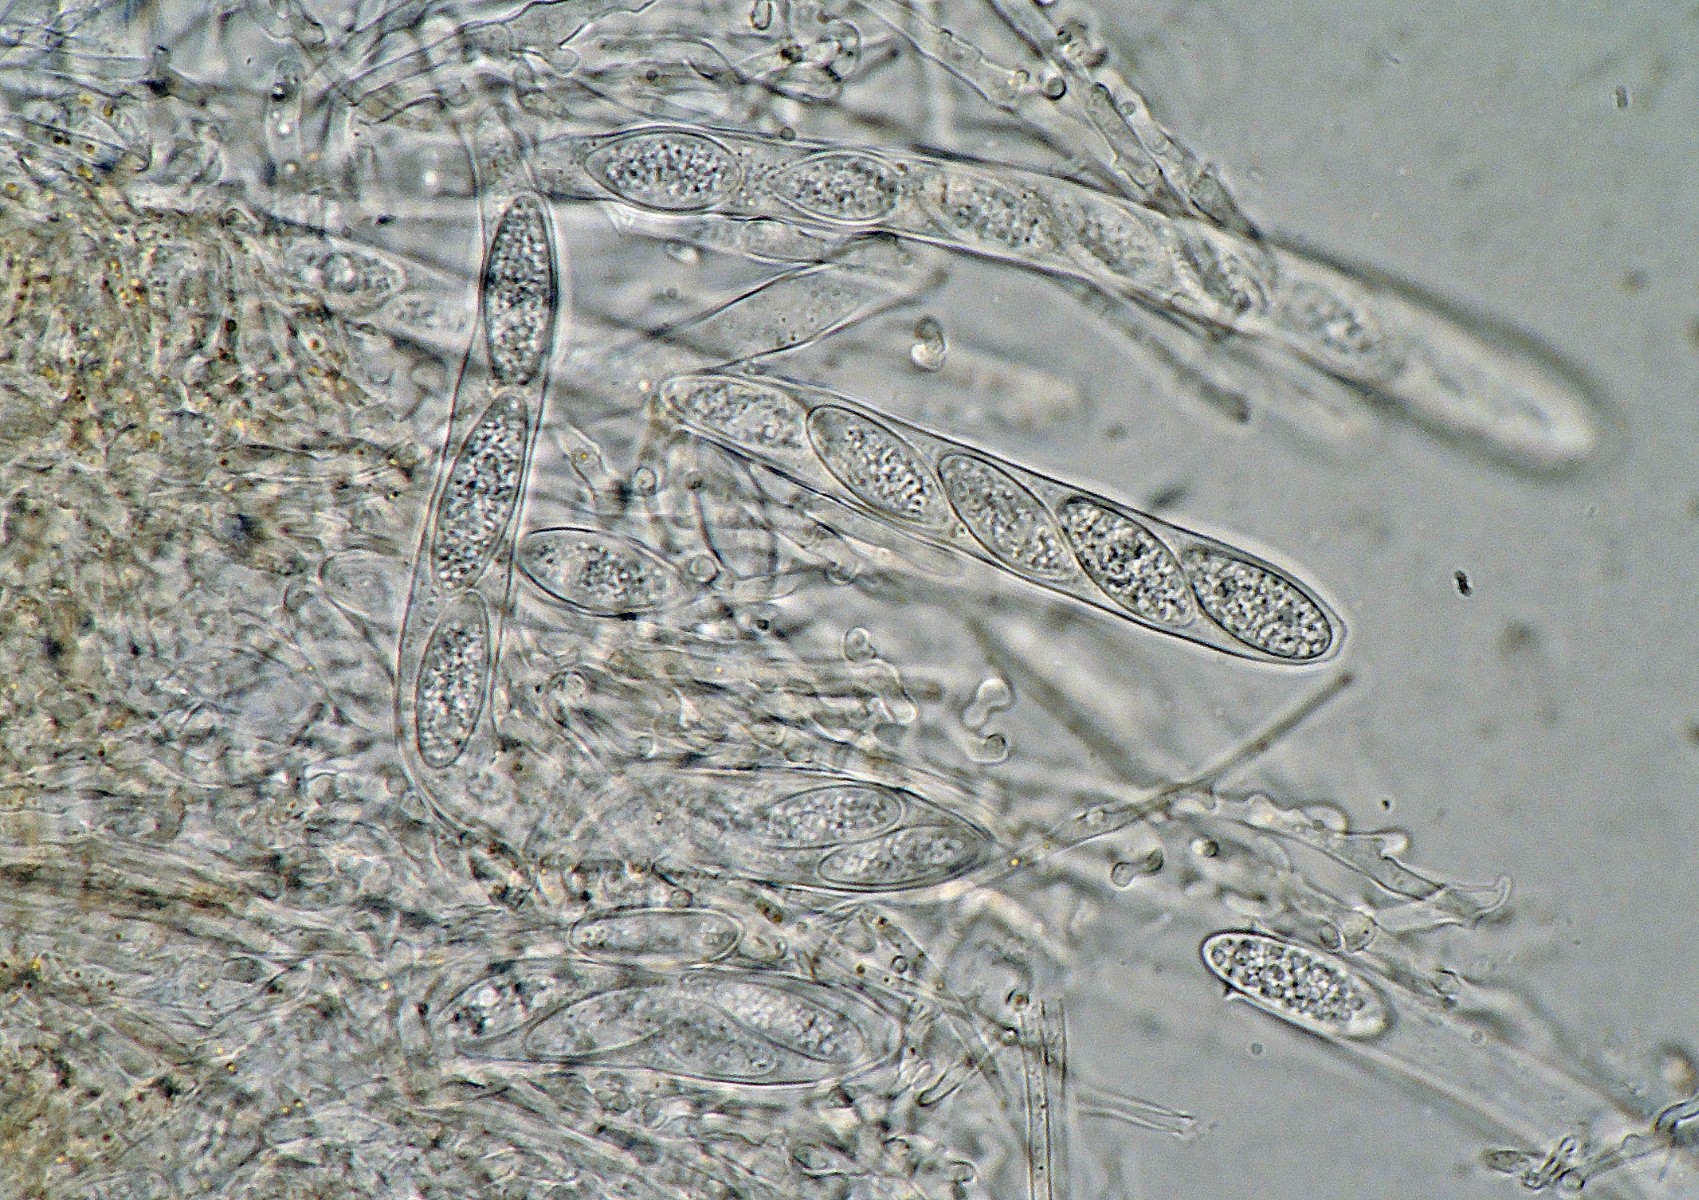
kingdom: Fungi
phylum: Ascomycota
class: Leotiomycetes
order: Helotiales
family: Lachnaceae
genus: Lachnellula
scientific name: Lachnellula occidentalis
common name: Larch disco
